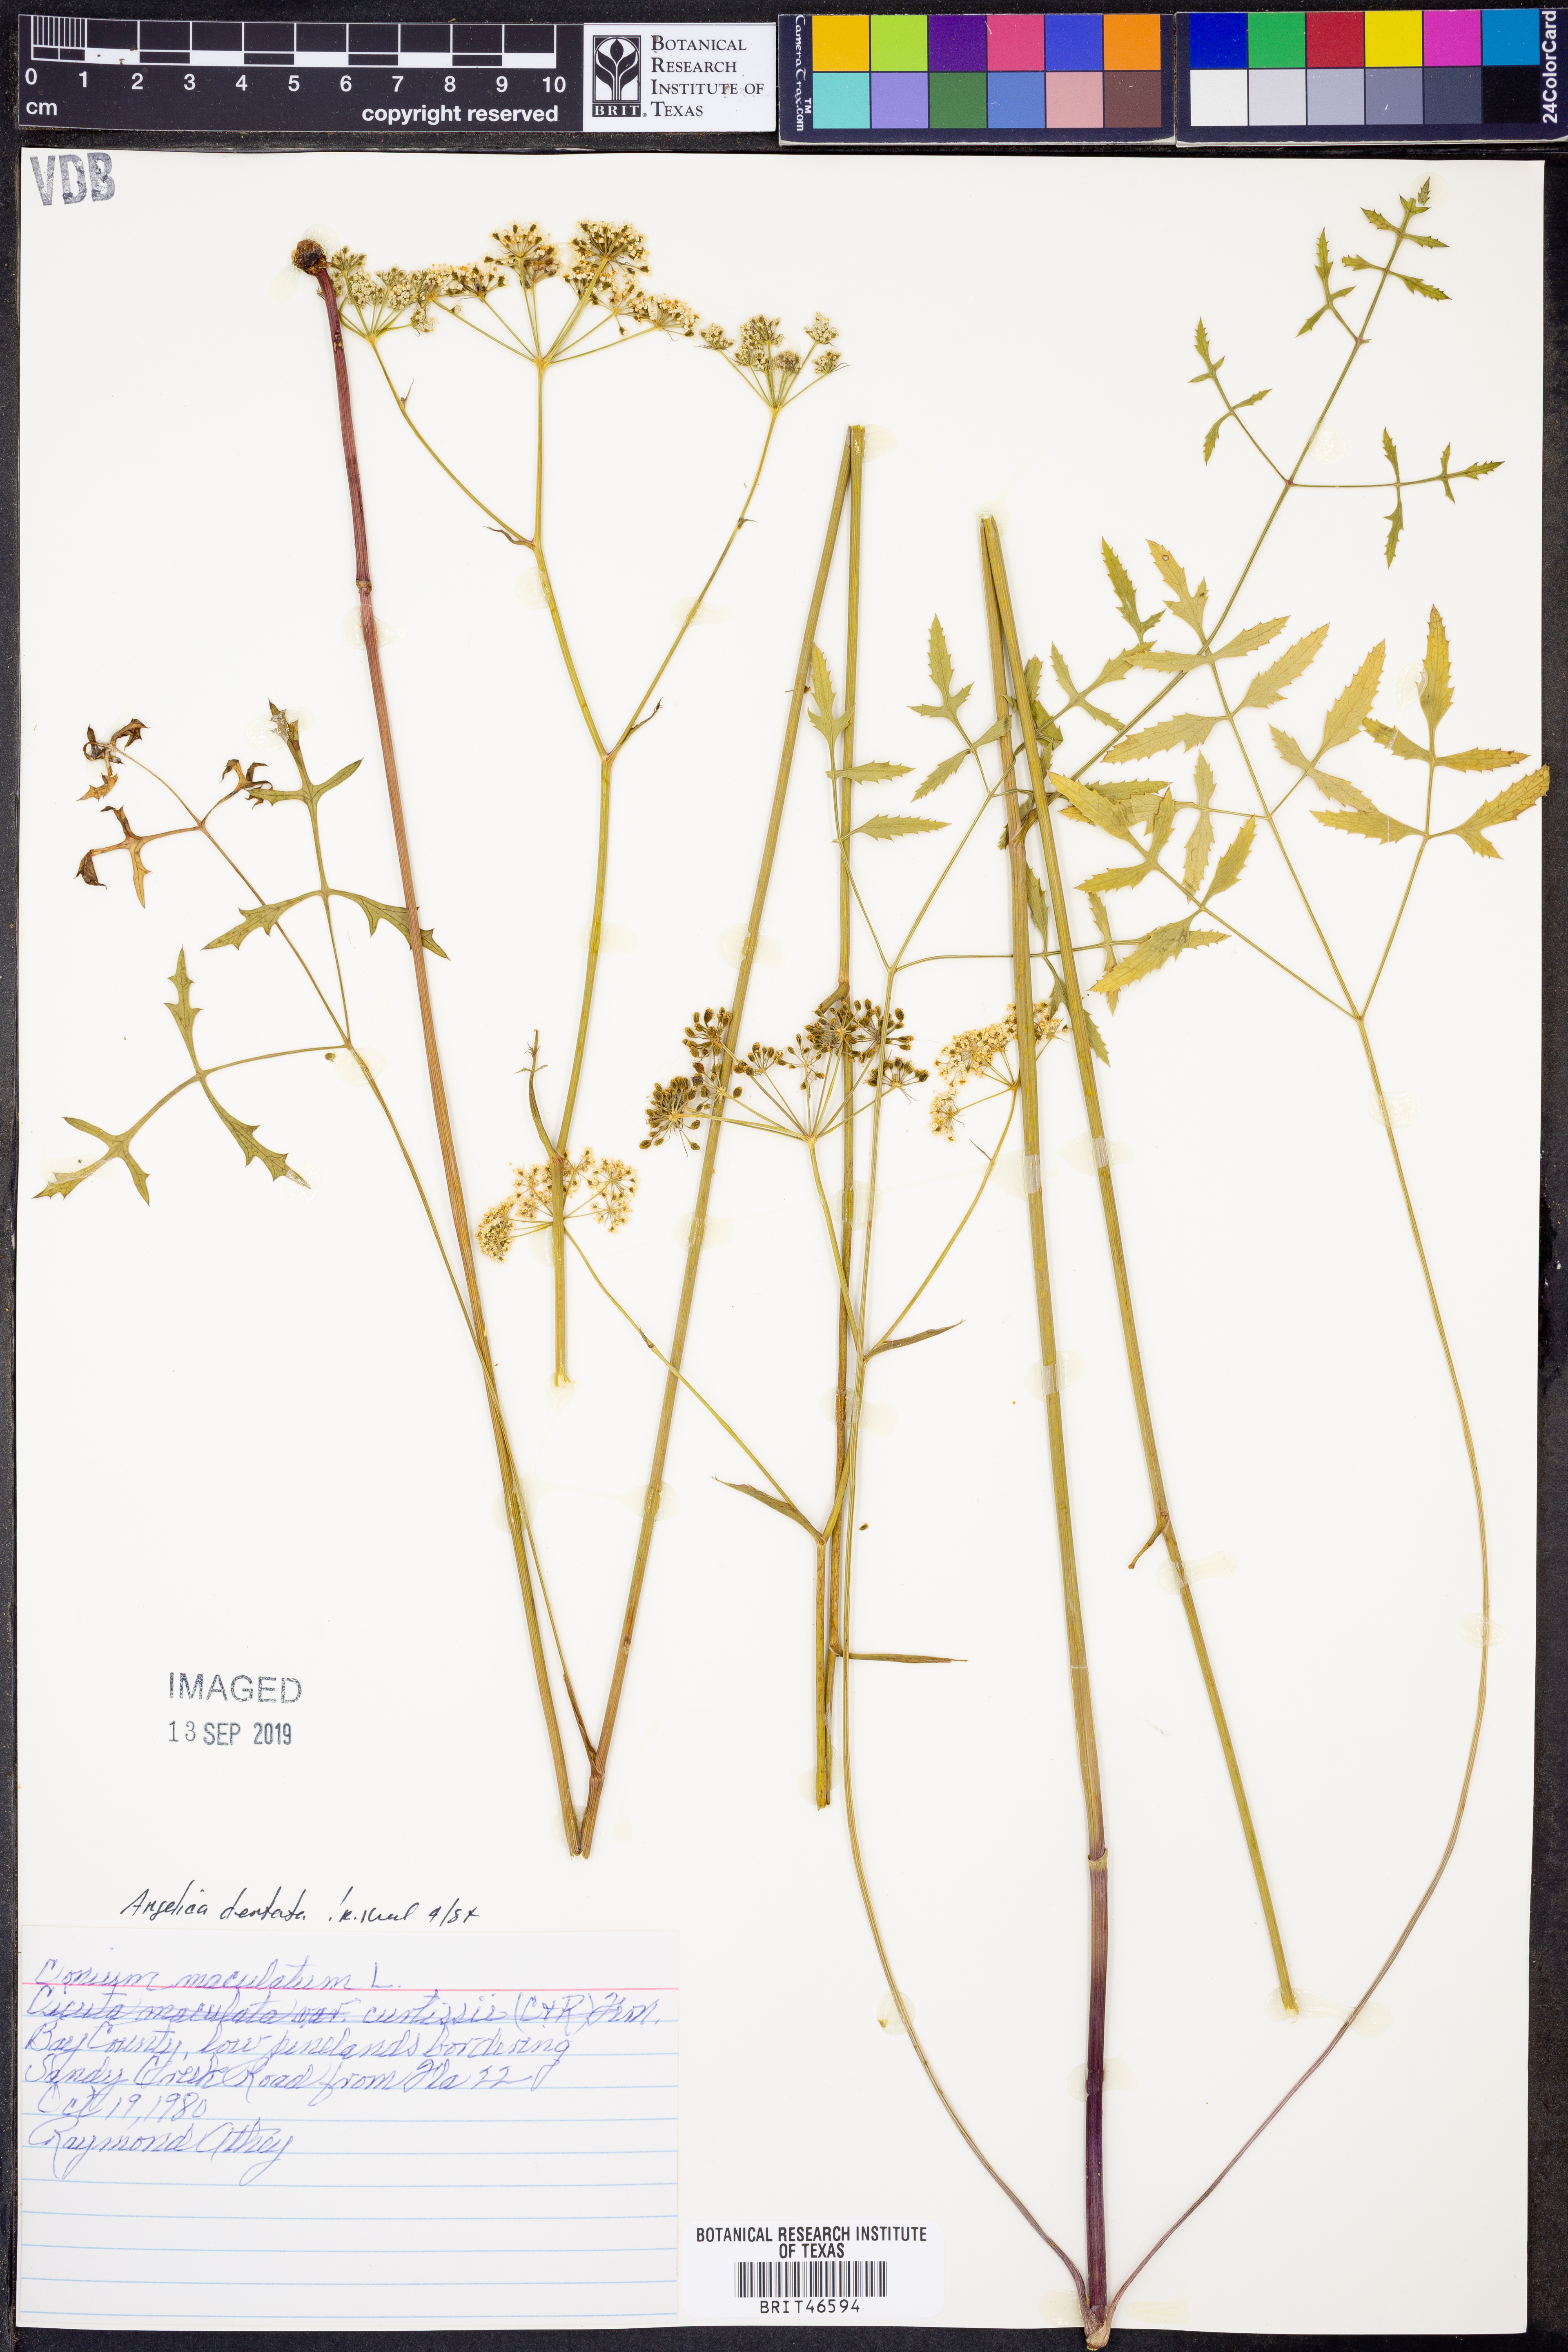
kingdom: Plantae
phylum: Tracheophyta
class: Magnoliopsida
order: Apiales
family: Apiaceae
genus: Angelica
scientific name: Angelica venenosa
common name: Hairy angelica
